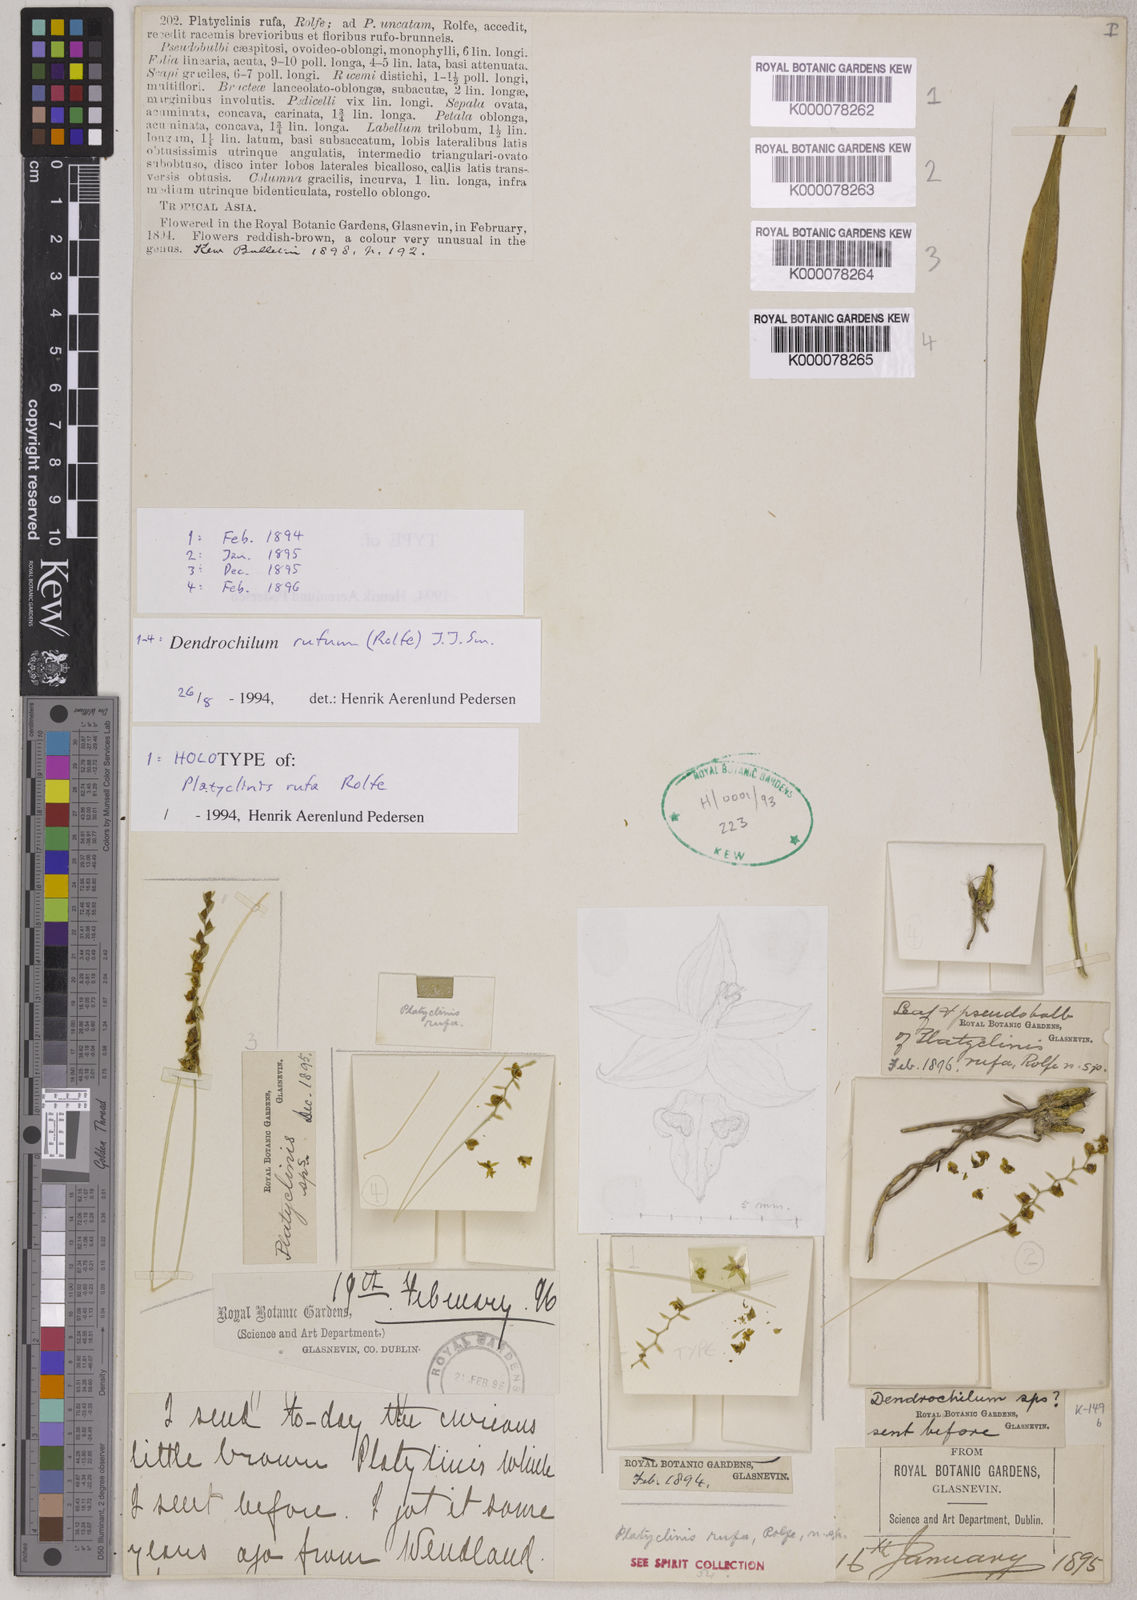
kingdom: Plantae
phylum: Tracheophyta
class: Liliopsida
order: Asparagales
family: Orchidaceae
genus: Coelogyne
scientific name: Coelogyne rufa
